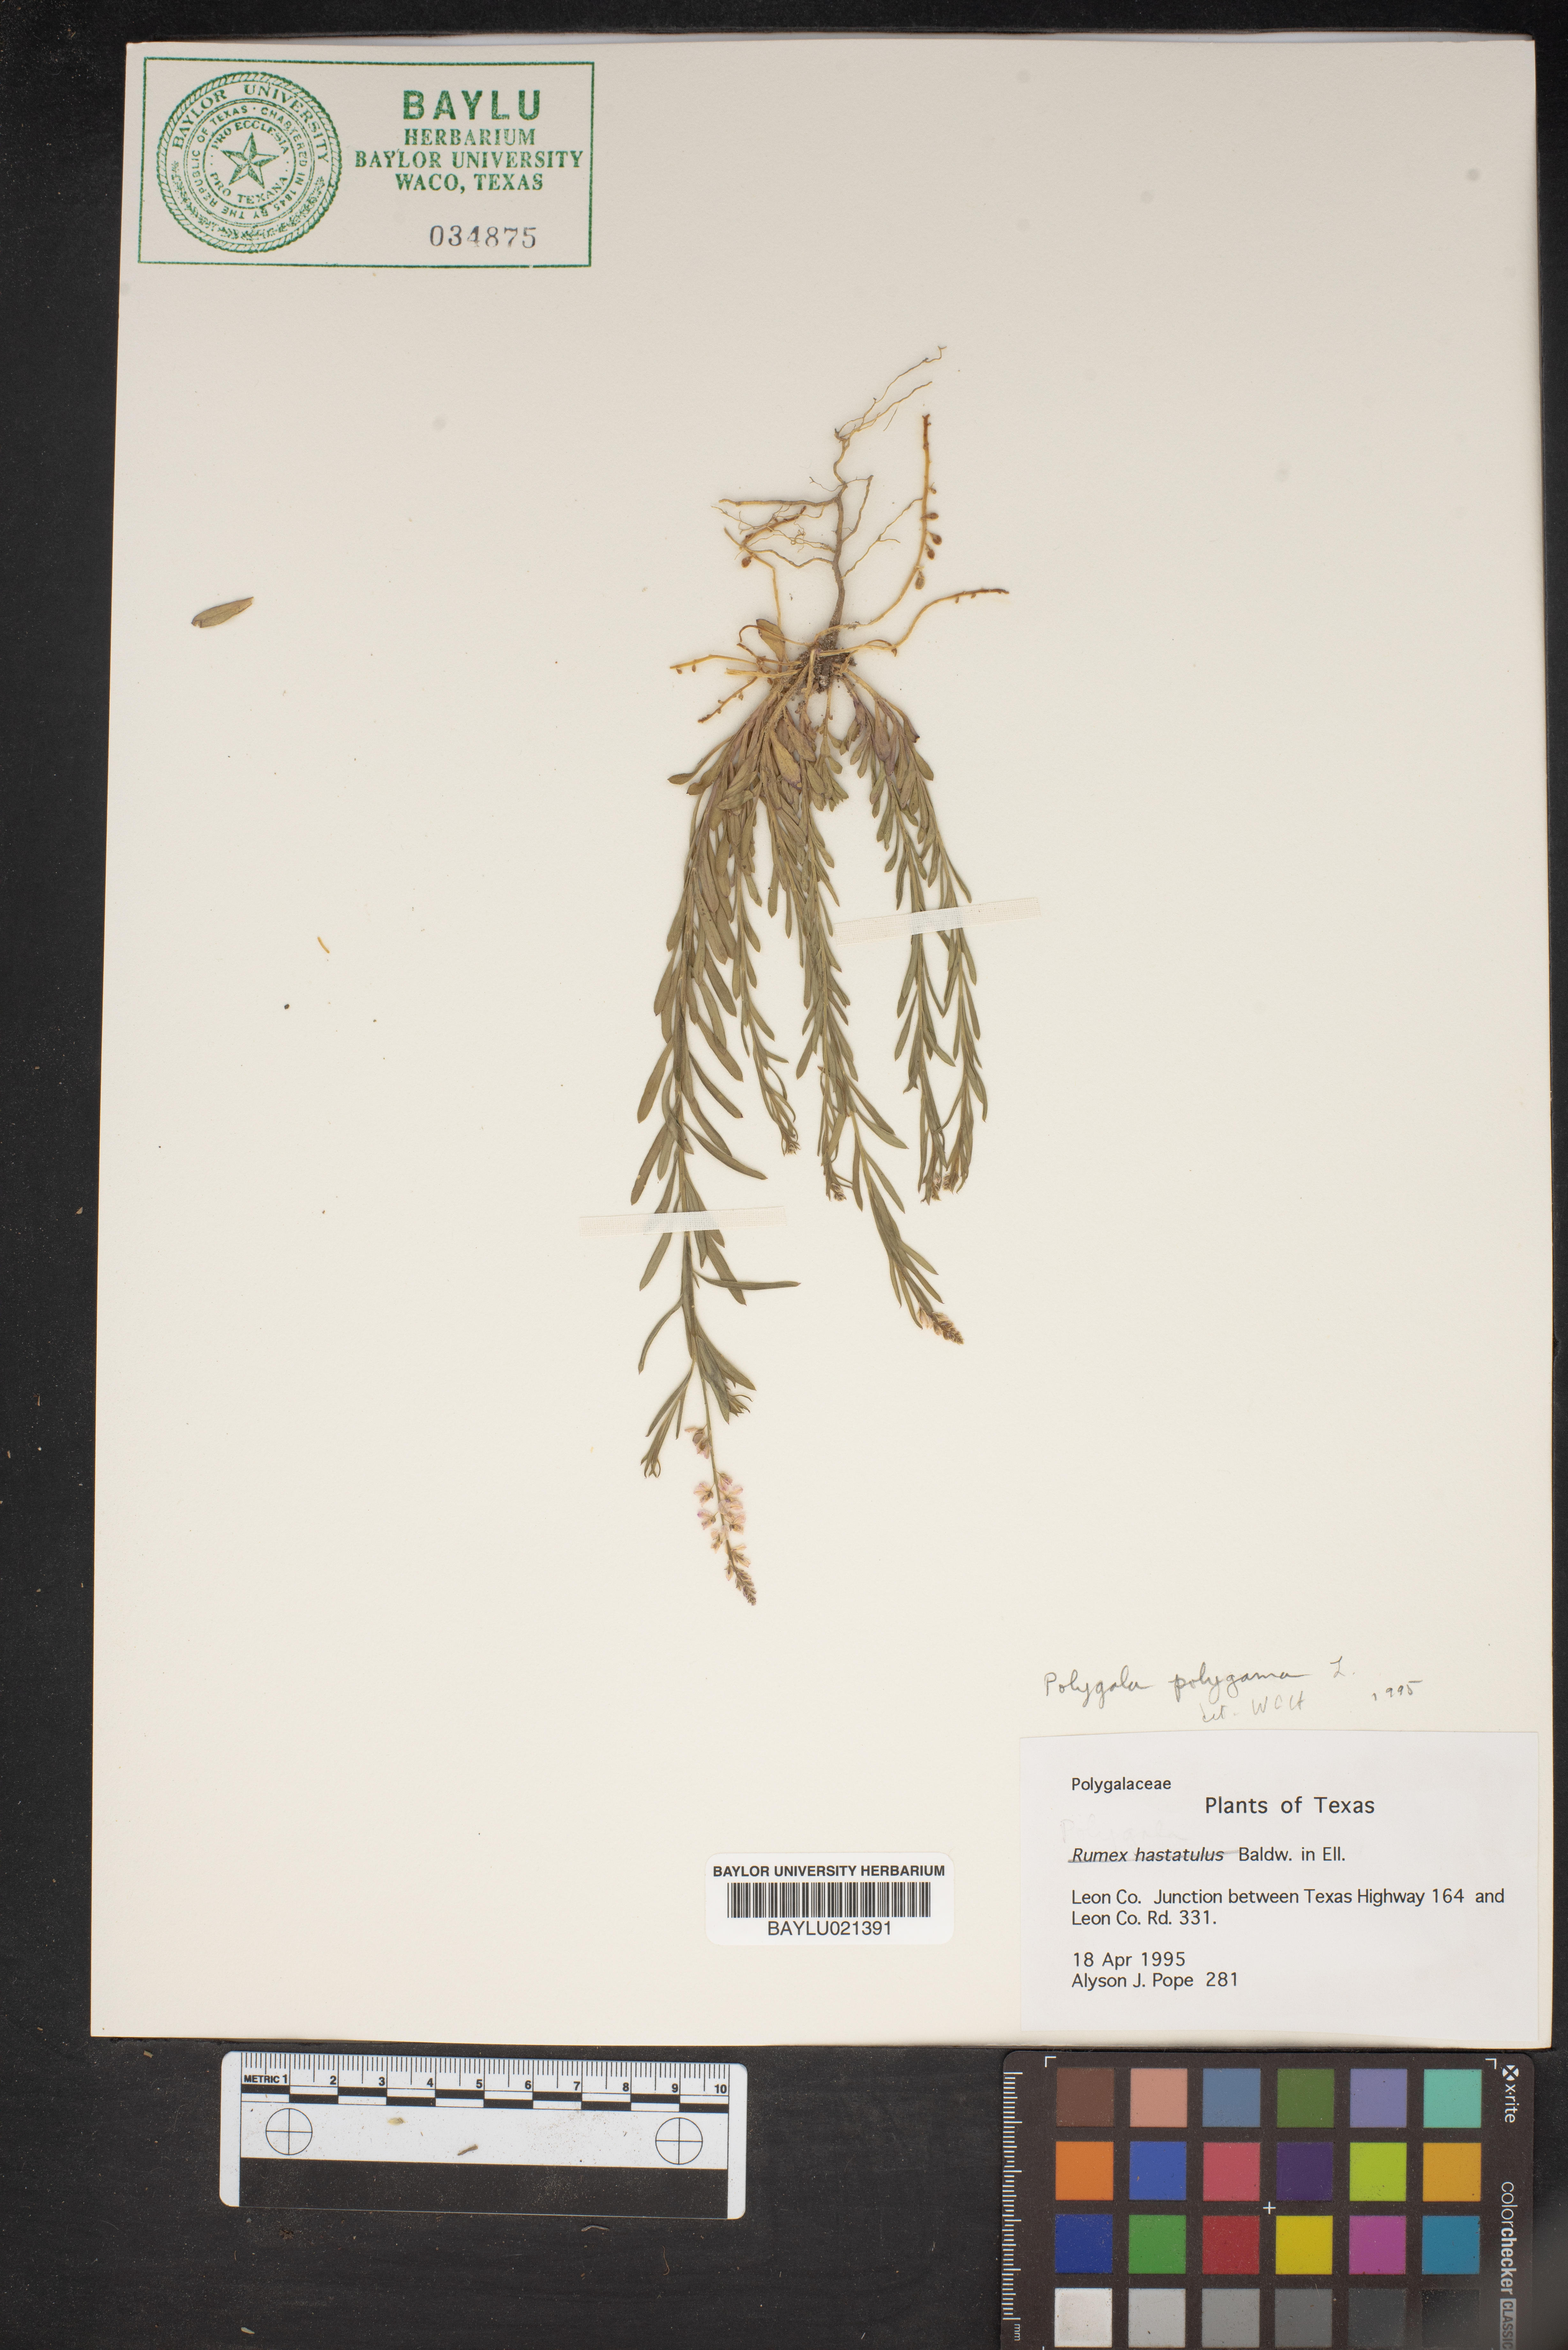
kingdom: Plantae
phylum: Tracheophyta
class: Magnoliopsida
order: Caryophyllales
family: Polygonaceae
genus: Rumex
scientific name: Rumex hastatulus
